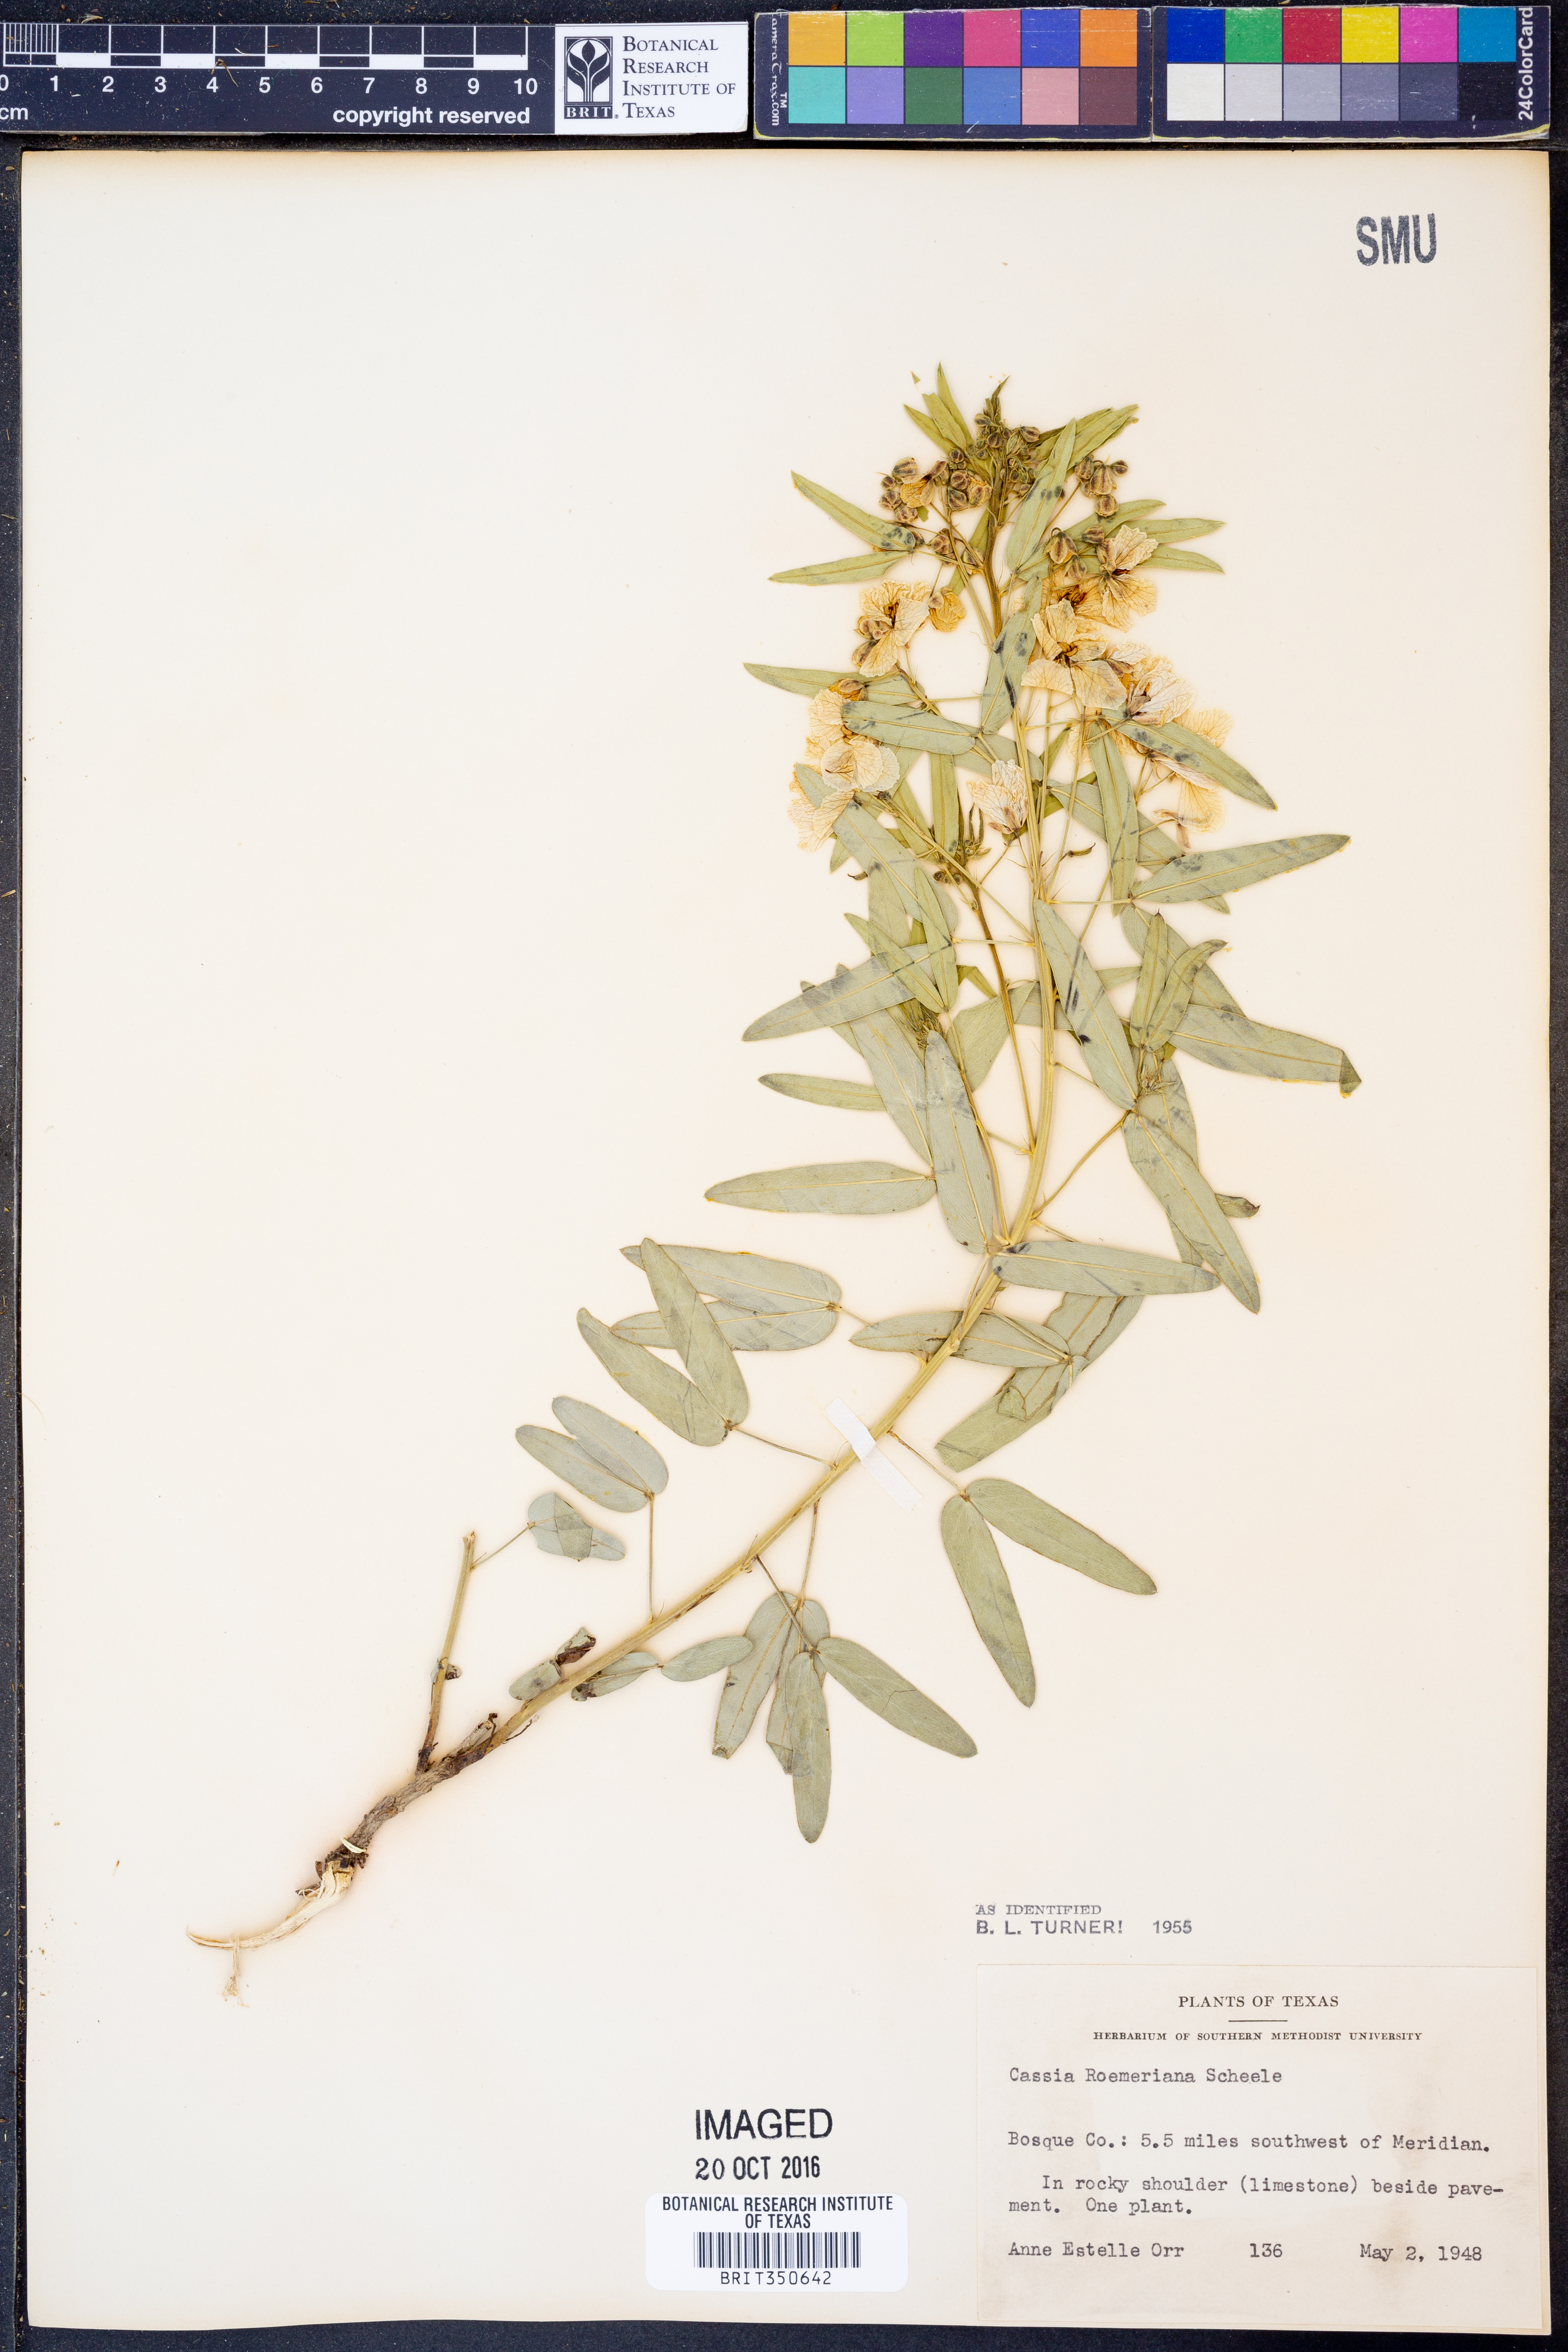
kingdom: Plantae
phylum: Tracheophyta
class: Magnoliopsida
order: Fabales
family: Fabaceae
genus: Senna
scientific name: Senna roemeriana
